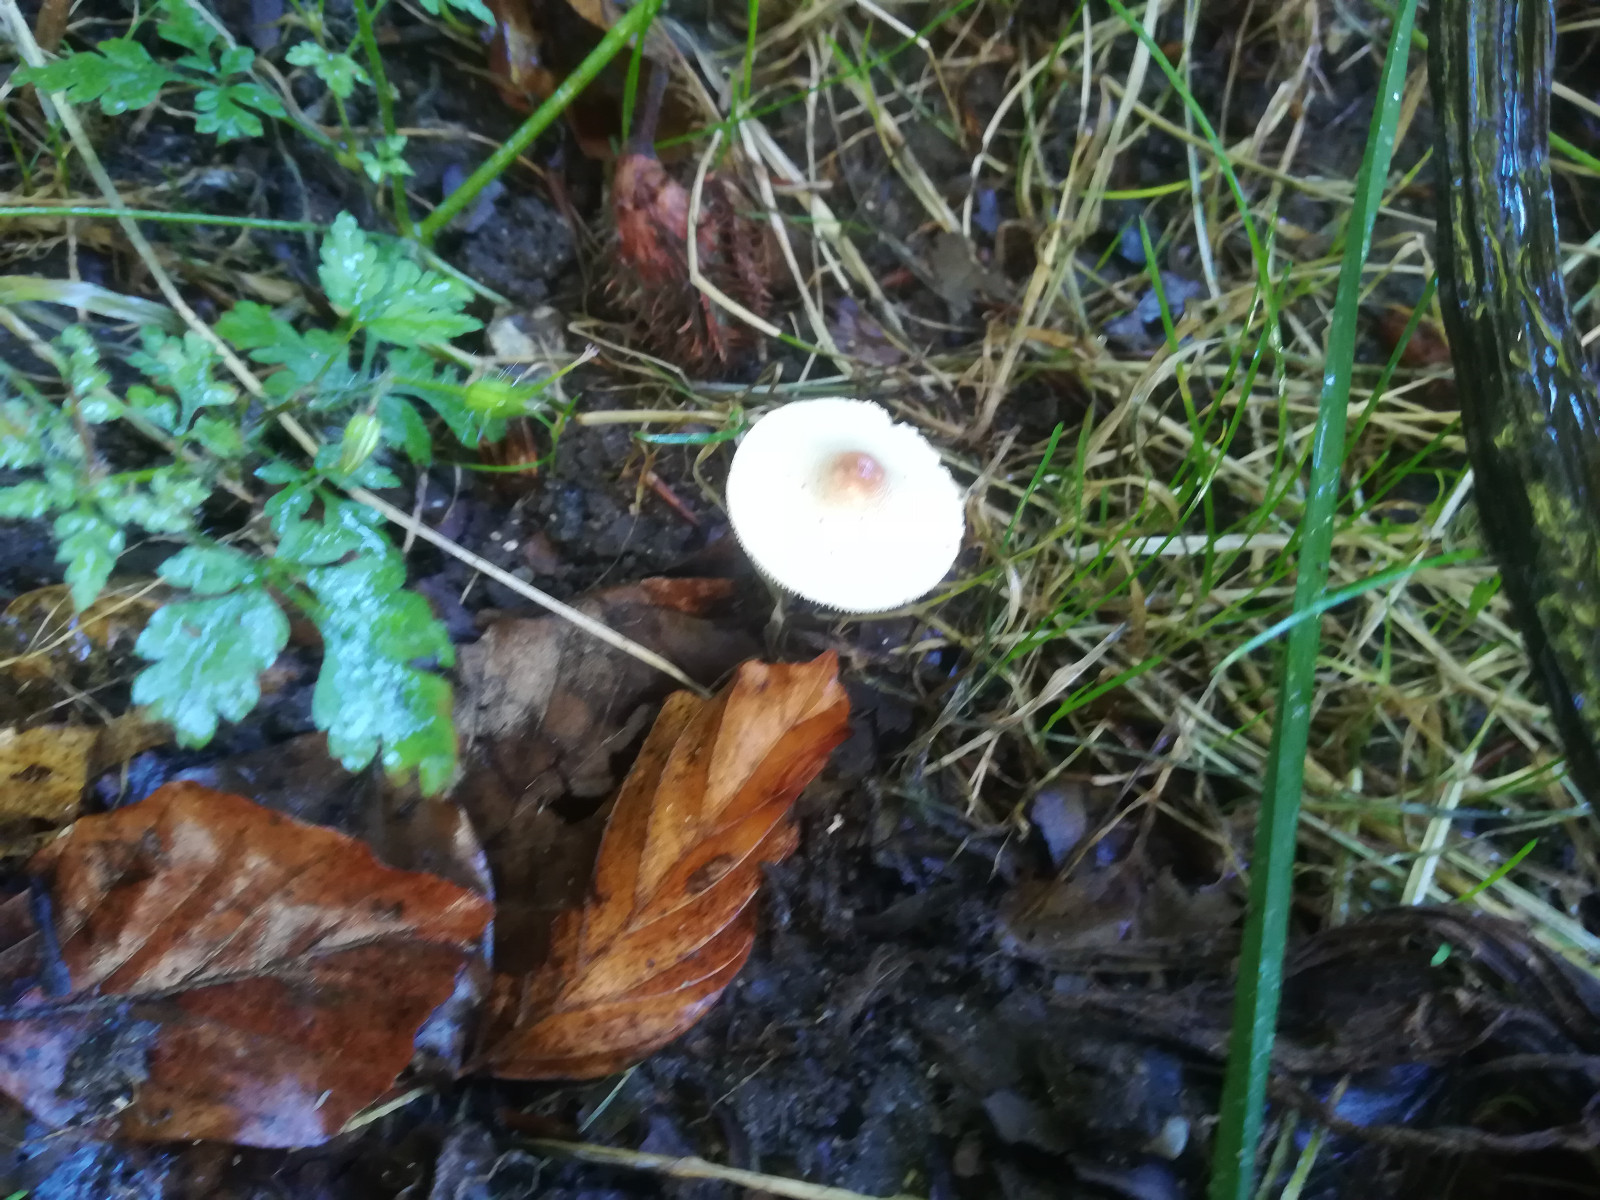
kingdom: Fungi
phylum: Basidiomycota
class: Agaricomycetes
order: Agaricales
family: Agaricaceae
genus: Lepiota
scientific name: Lepiota cristata
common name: stinkende parasolhat
